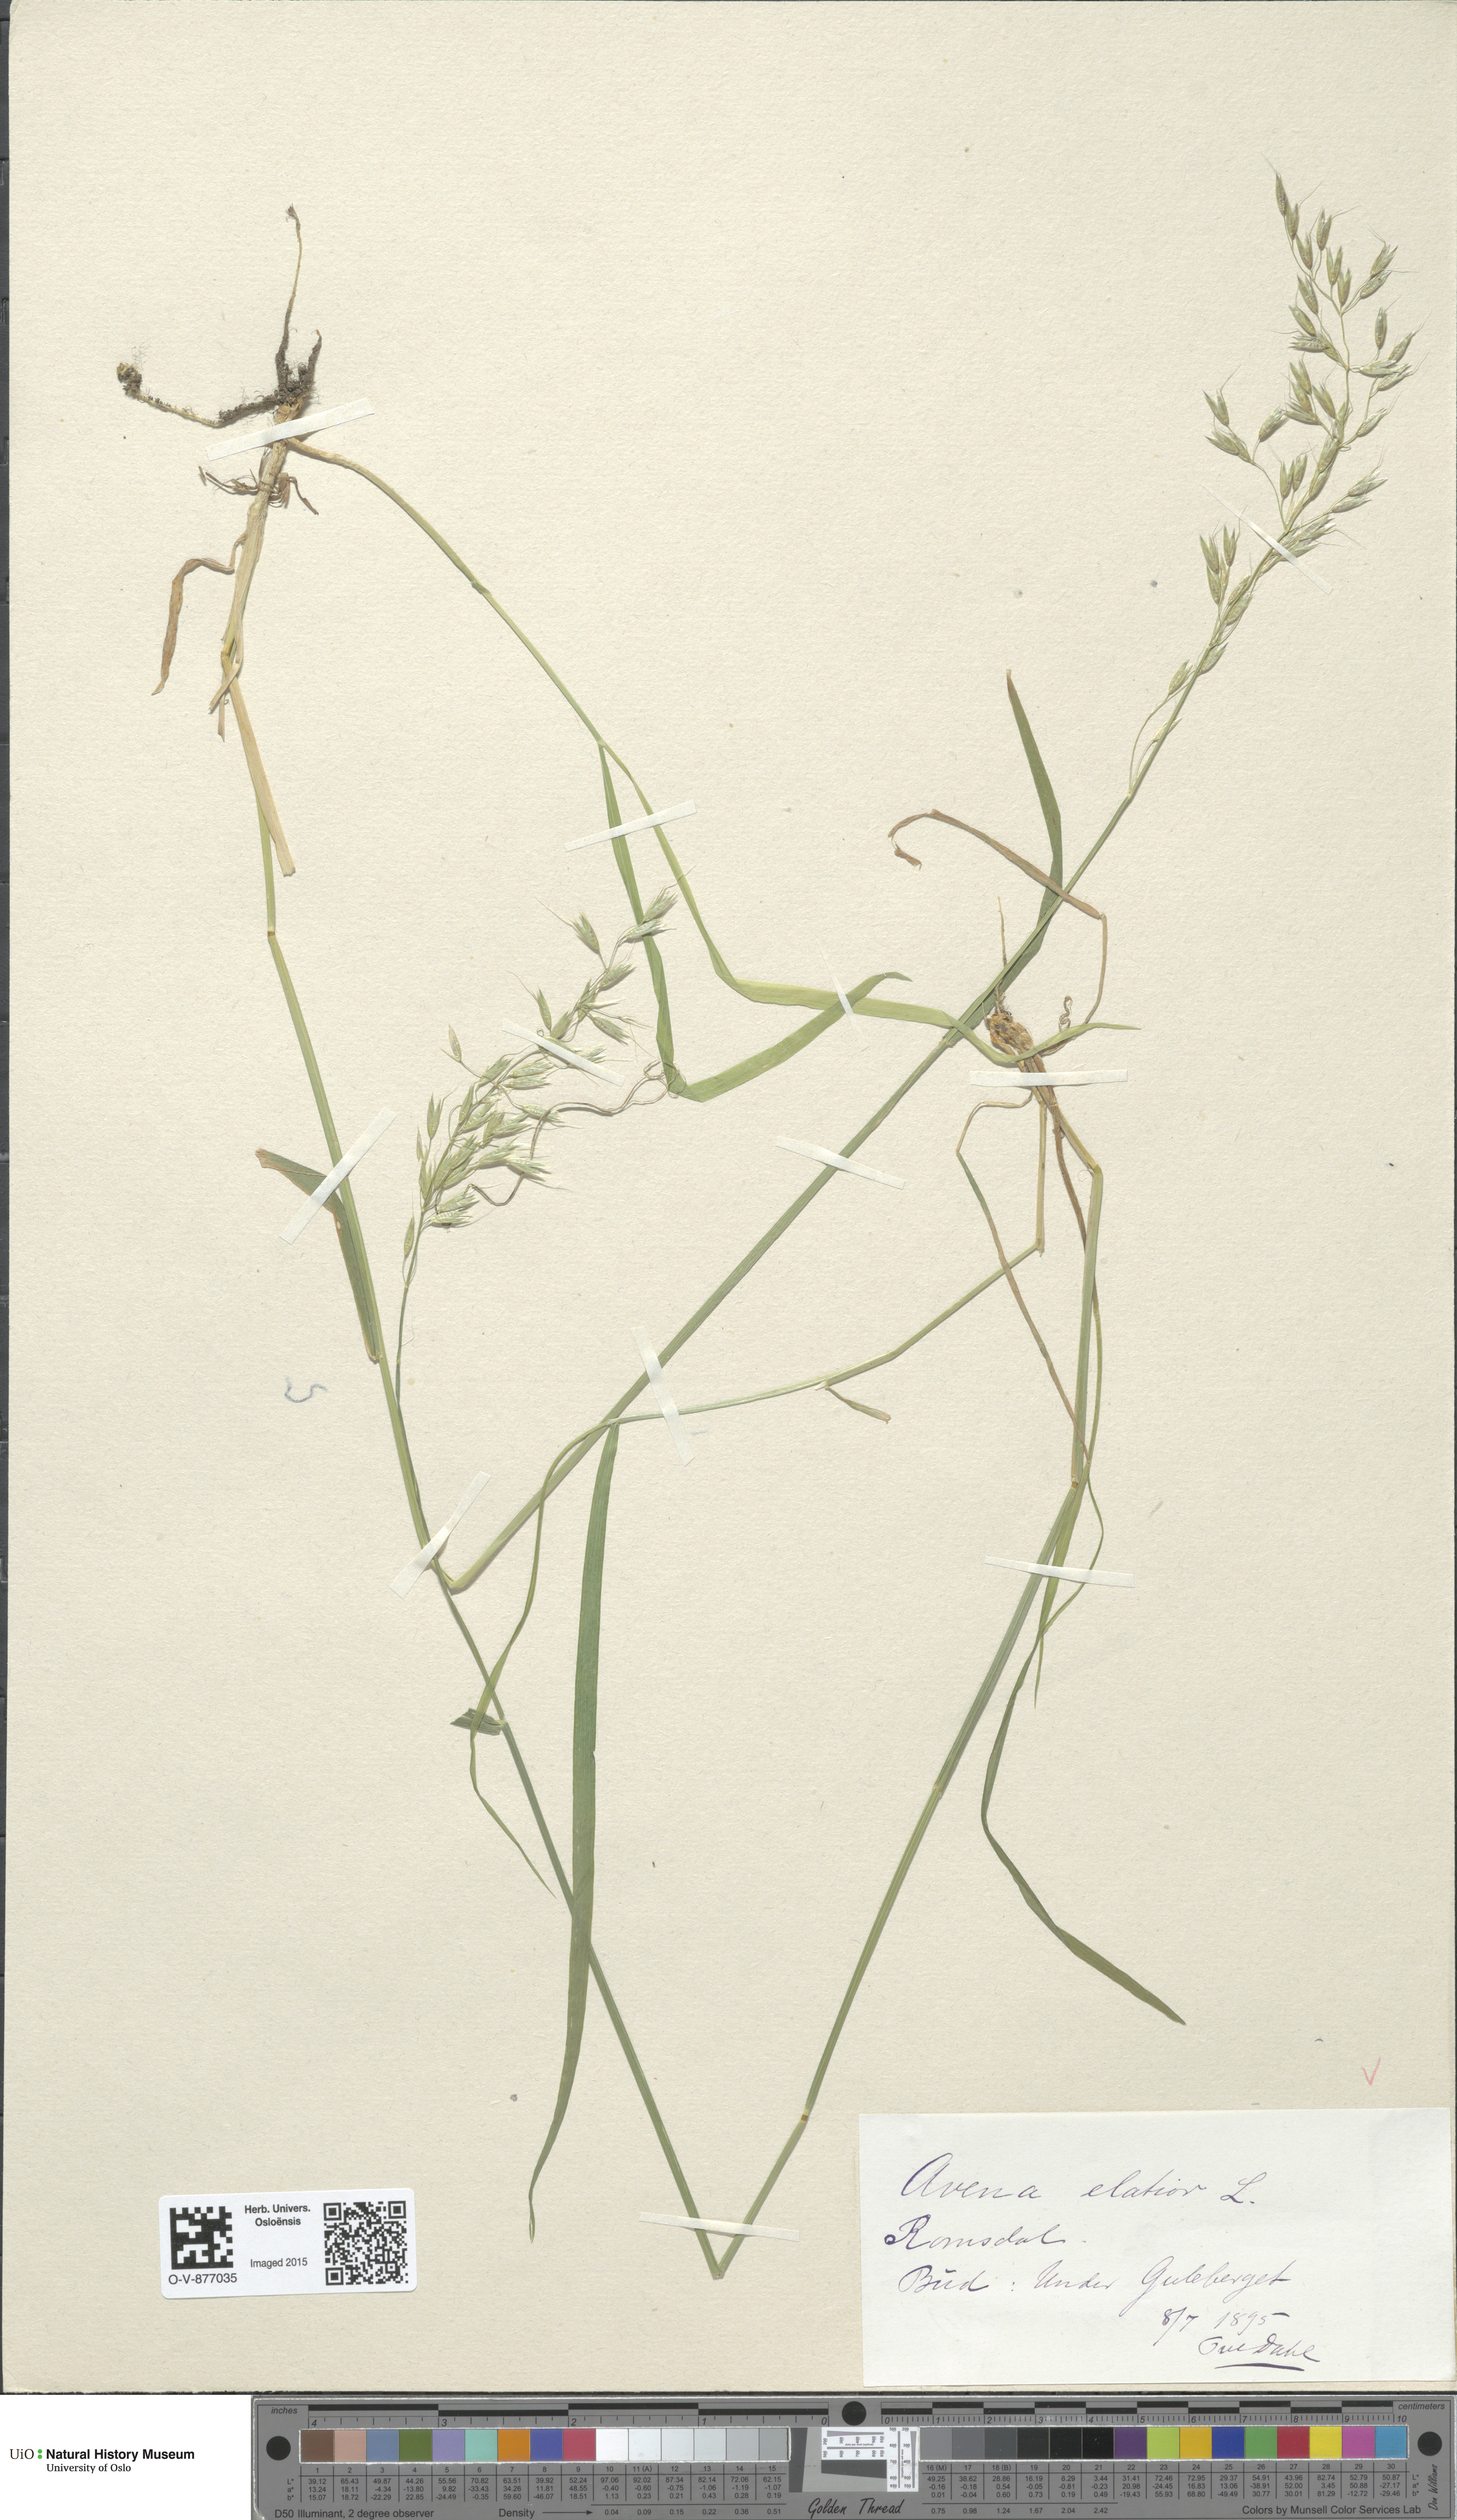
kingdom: Plantae
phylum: Tracheophyta
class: Liliopsida
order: Poales
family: Poaceae
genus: Arrhenatherum
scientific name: Arrhenatherum elatius
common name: Tall oatgrass
